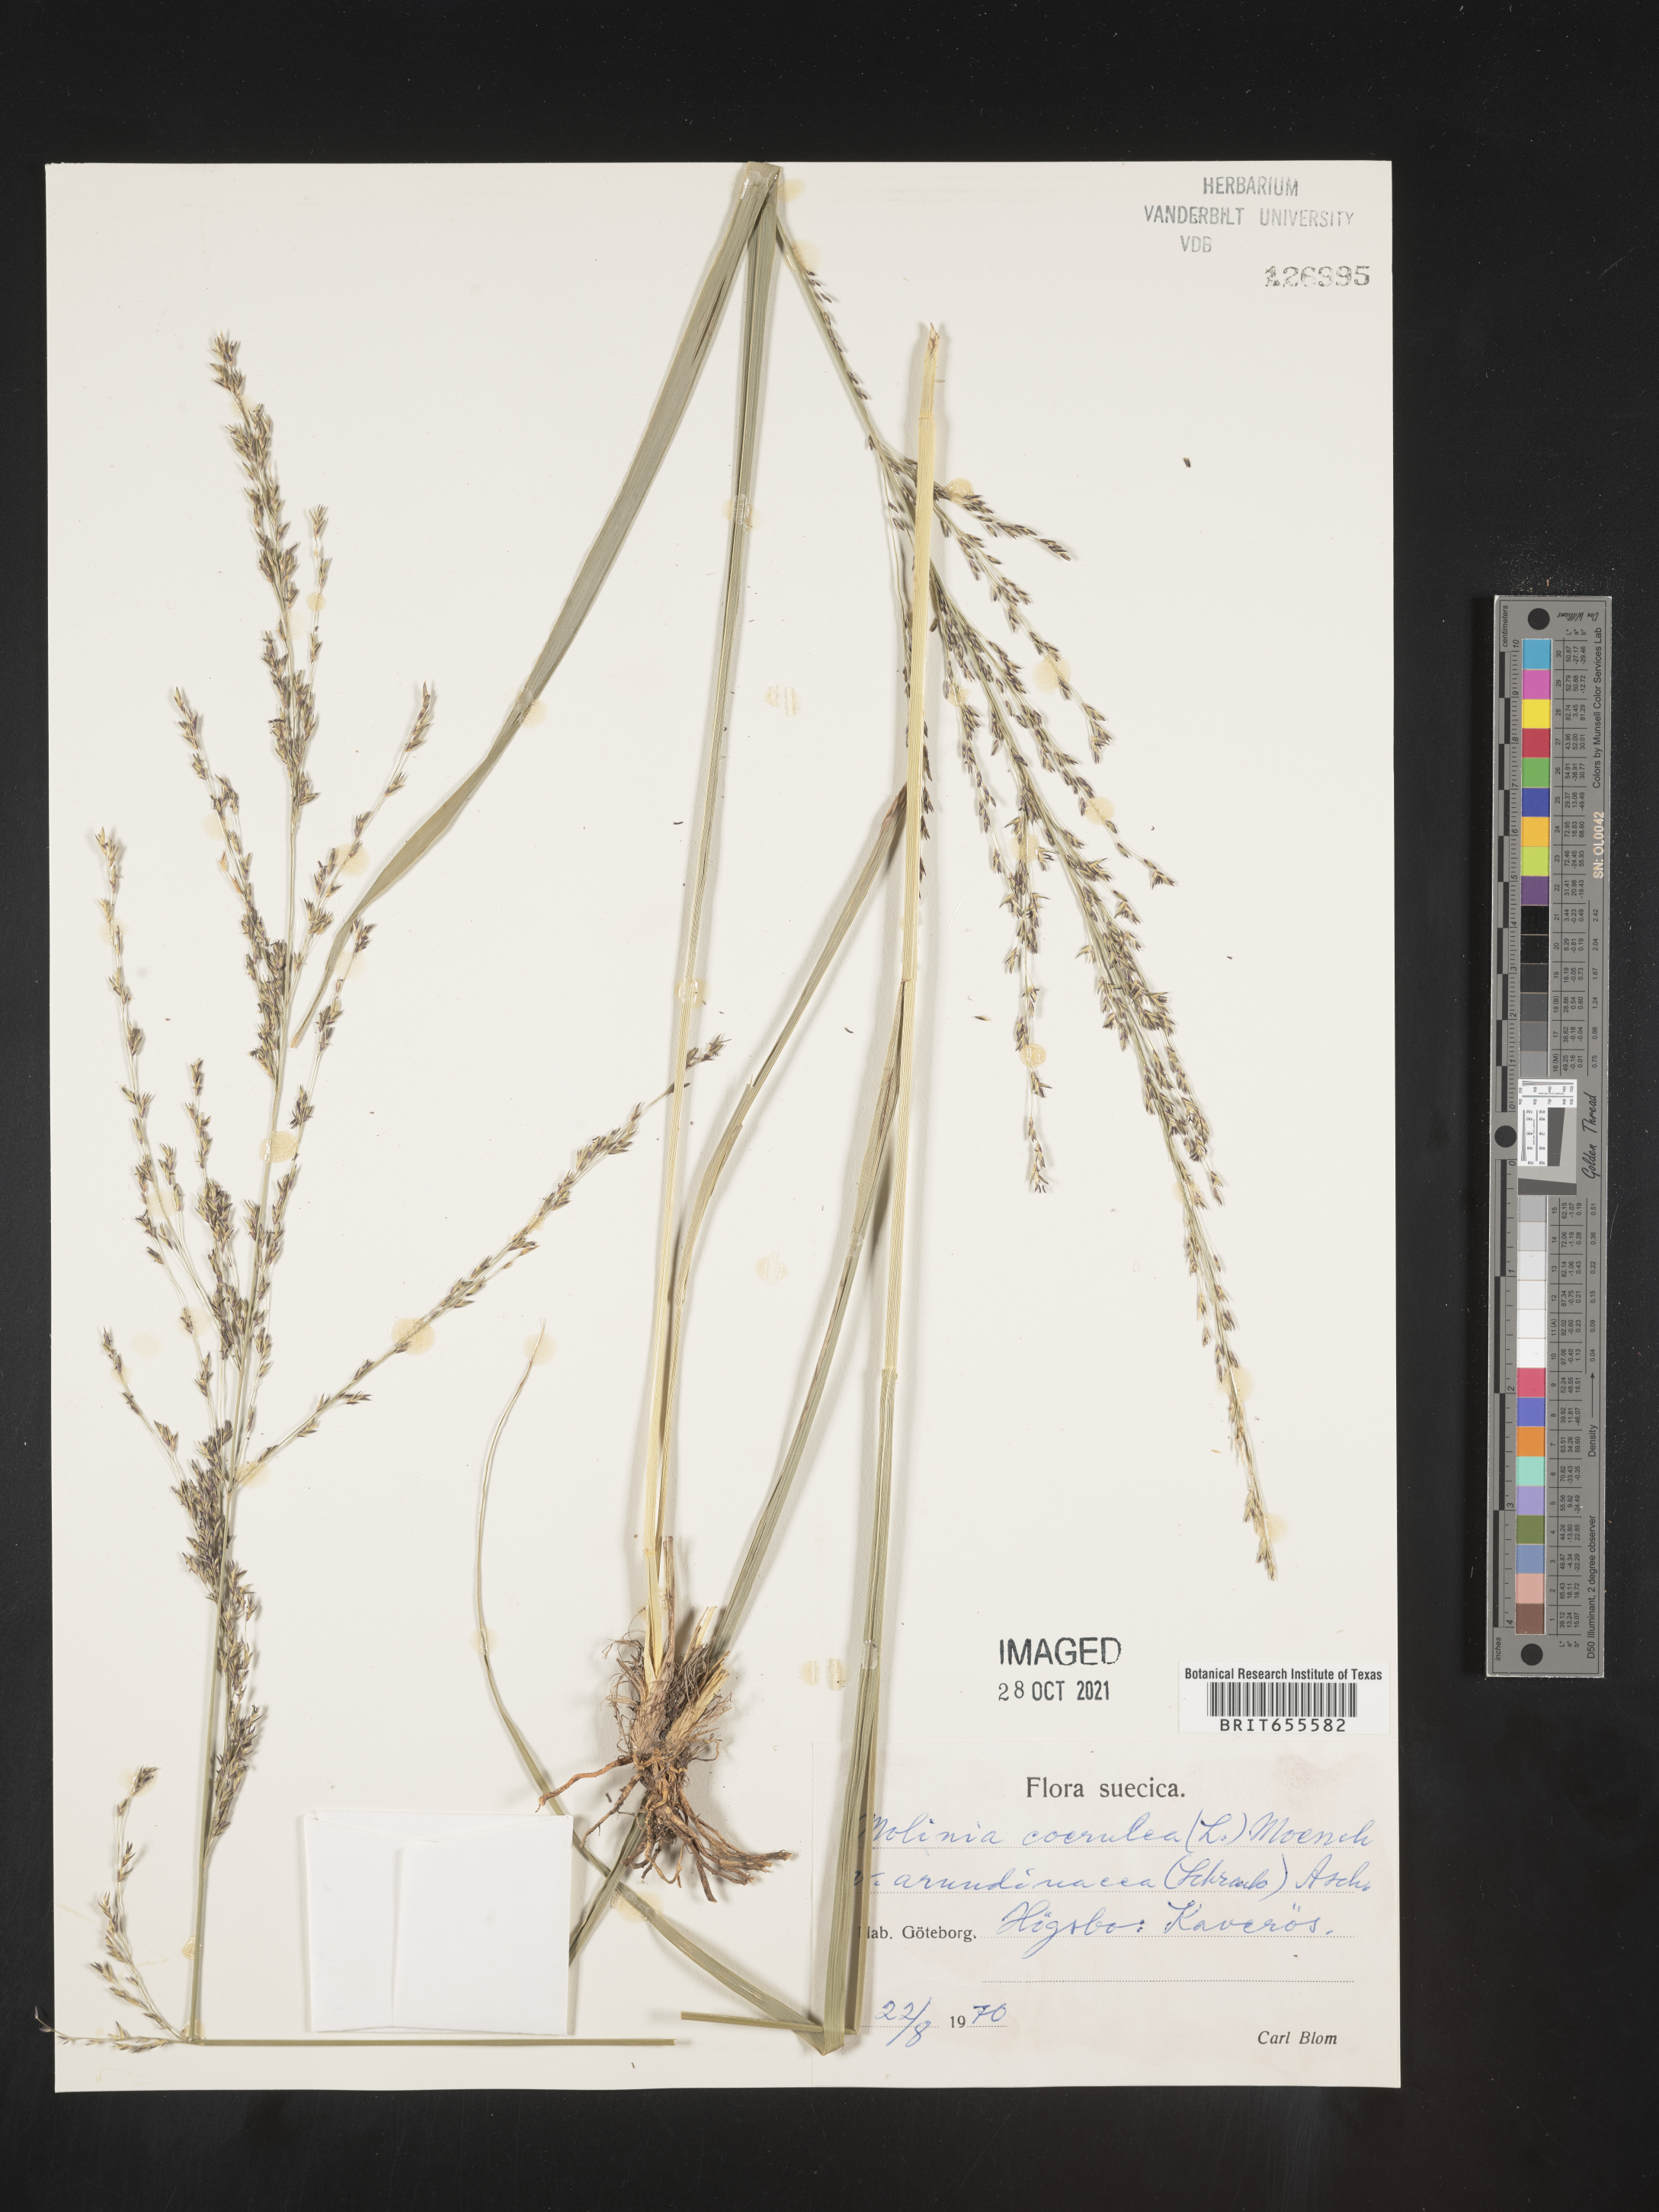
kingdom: Plantae
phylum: Tracheophyta
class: Liliopsida
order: Poales
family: Poaceae
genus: Molinia
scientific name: Molinia
